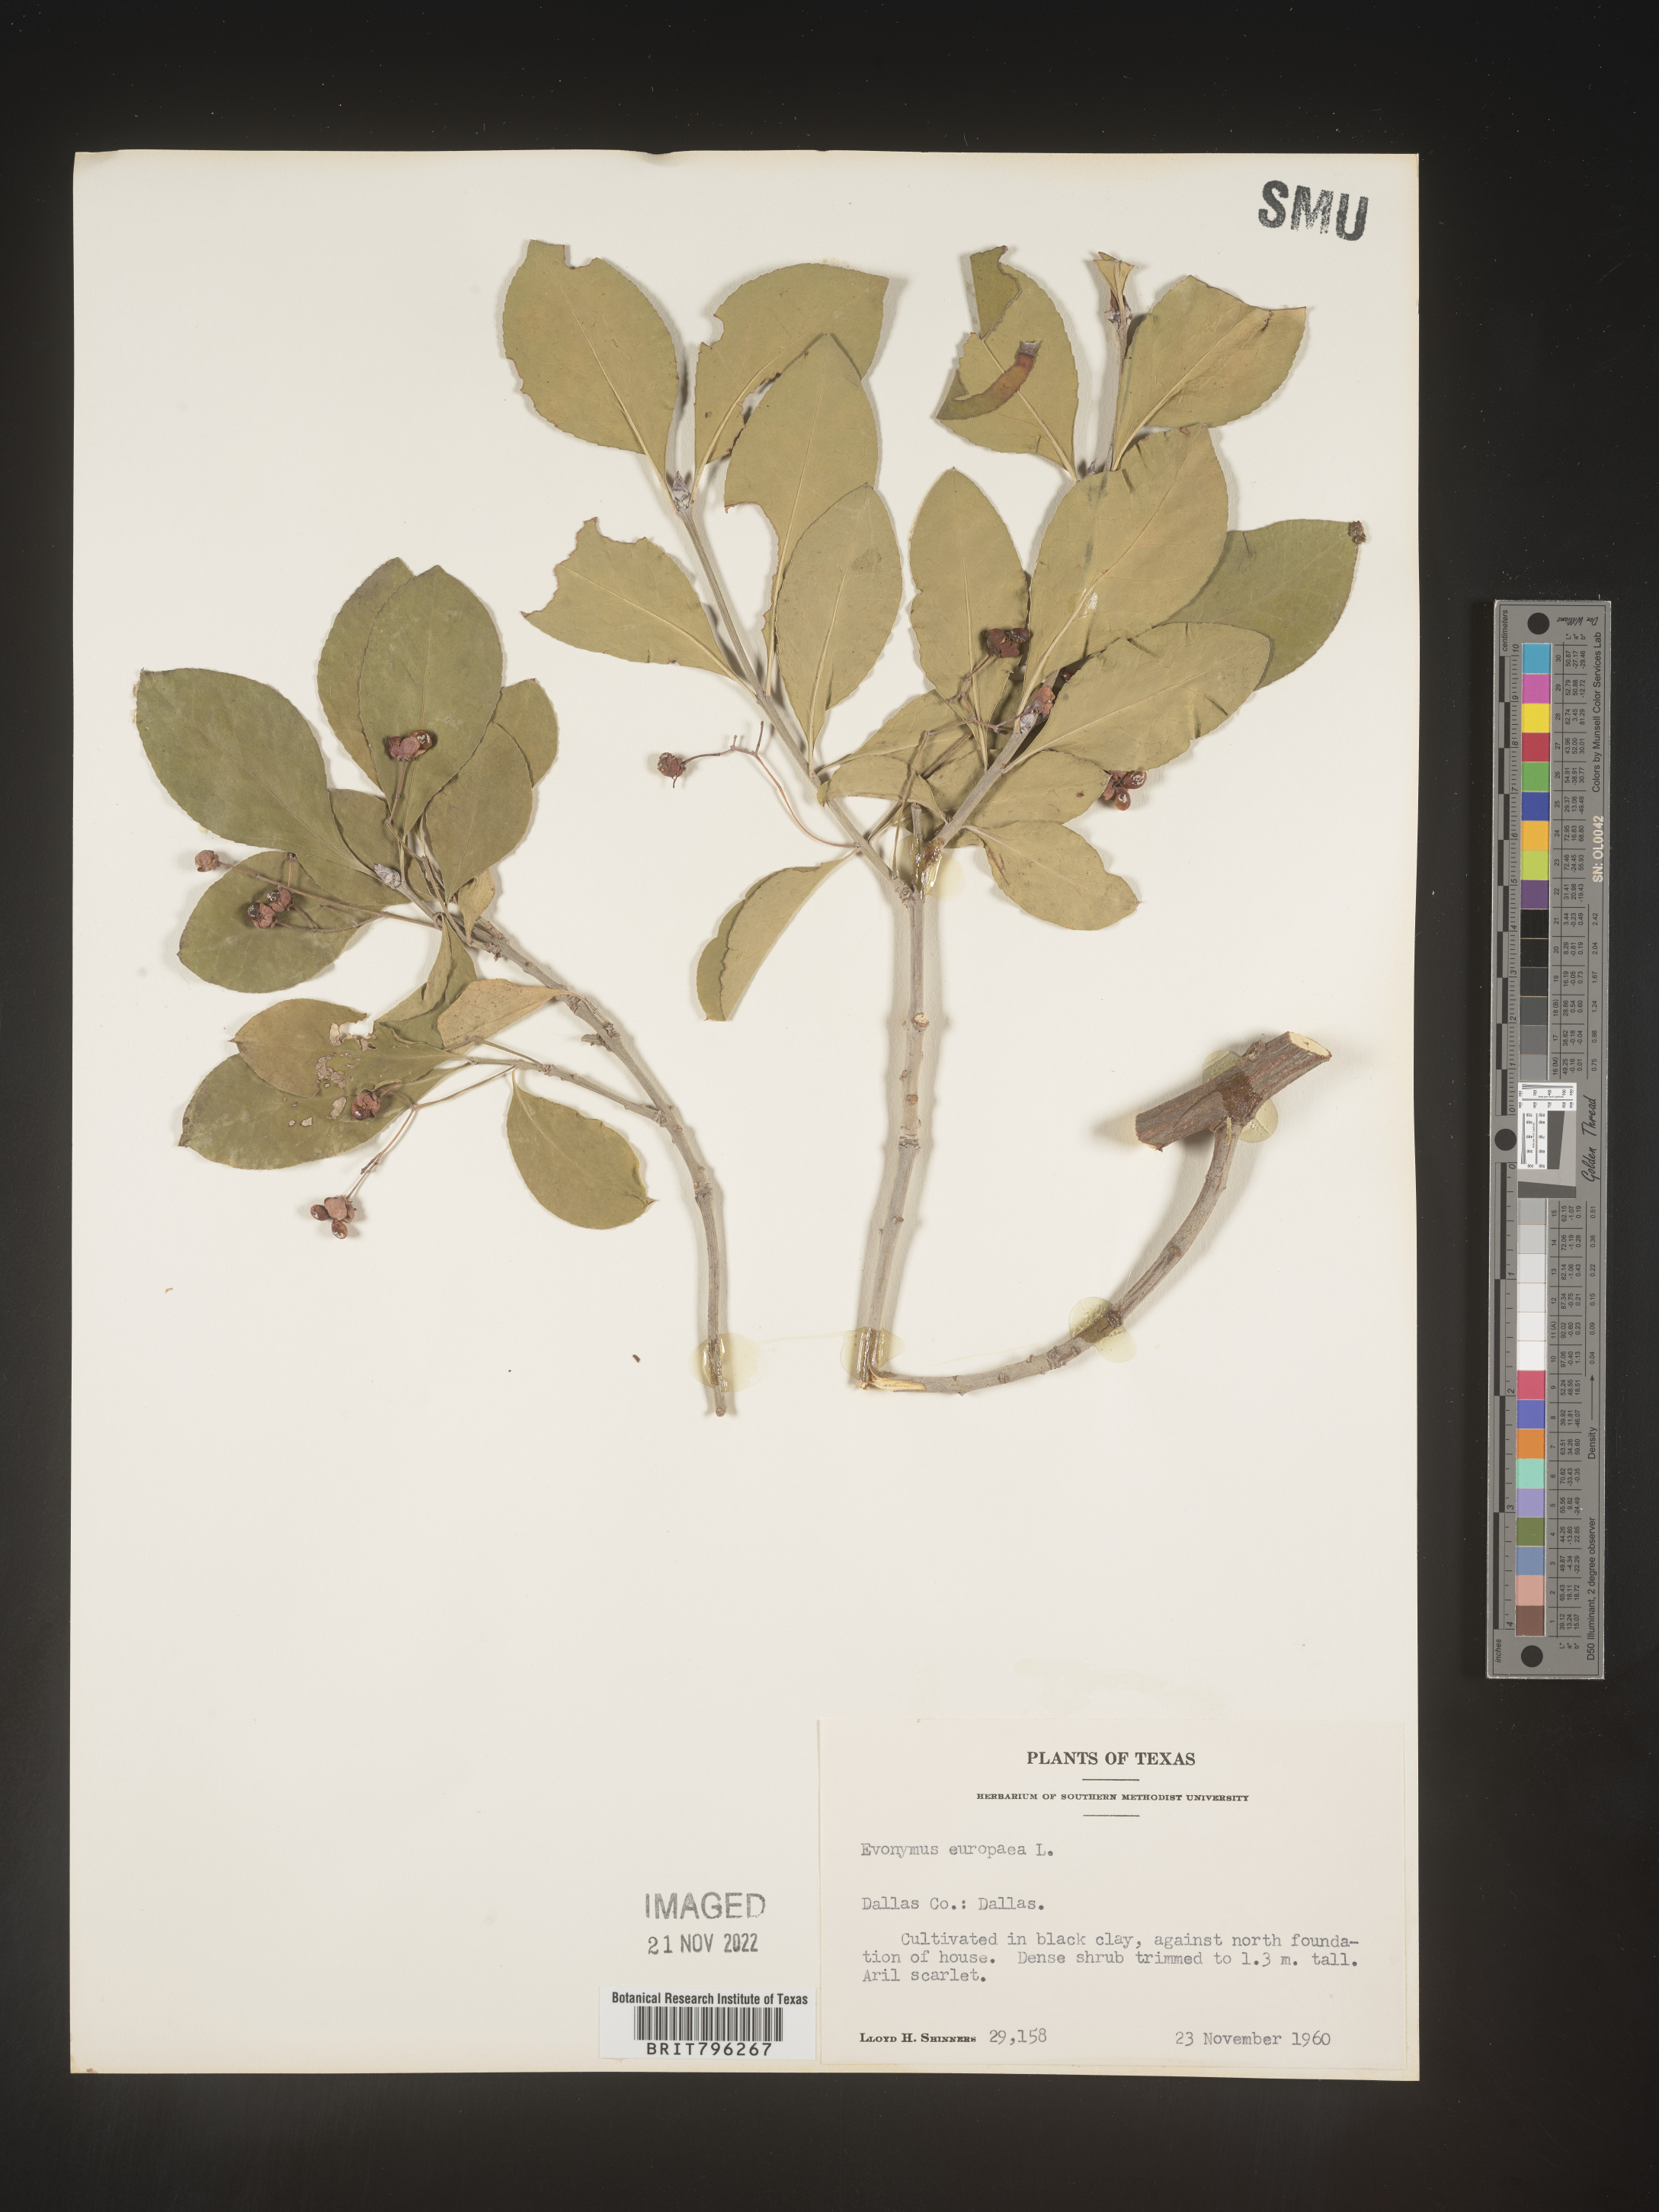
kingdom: Plantae
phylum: Tracheophyta
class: Magnoliopsida
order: Celastrales
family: Celastraceae
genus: Euonymus
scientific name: Euonymus europaeus
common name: Spindle
